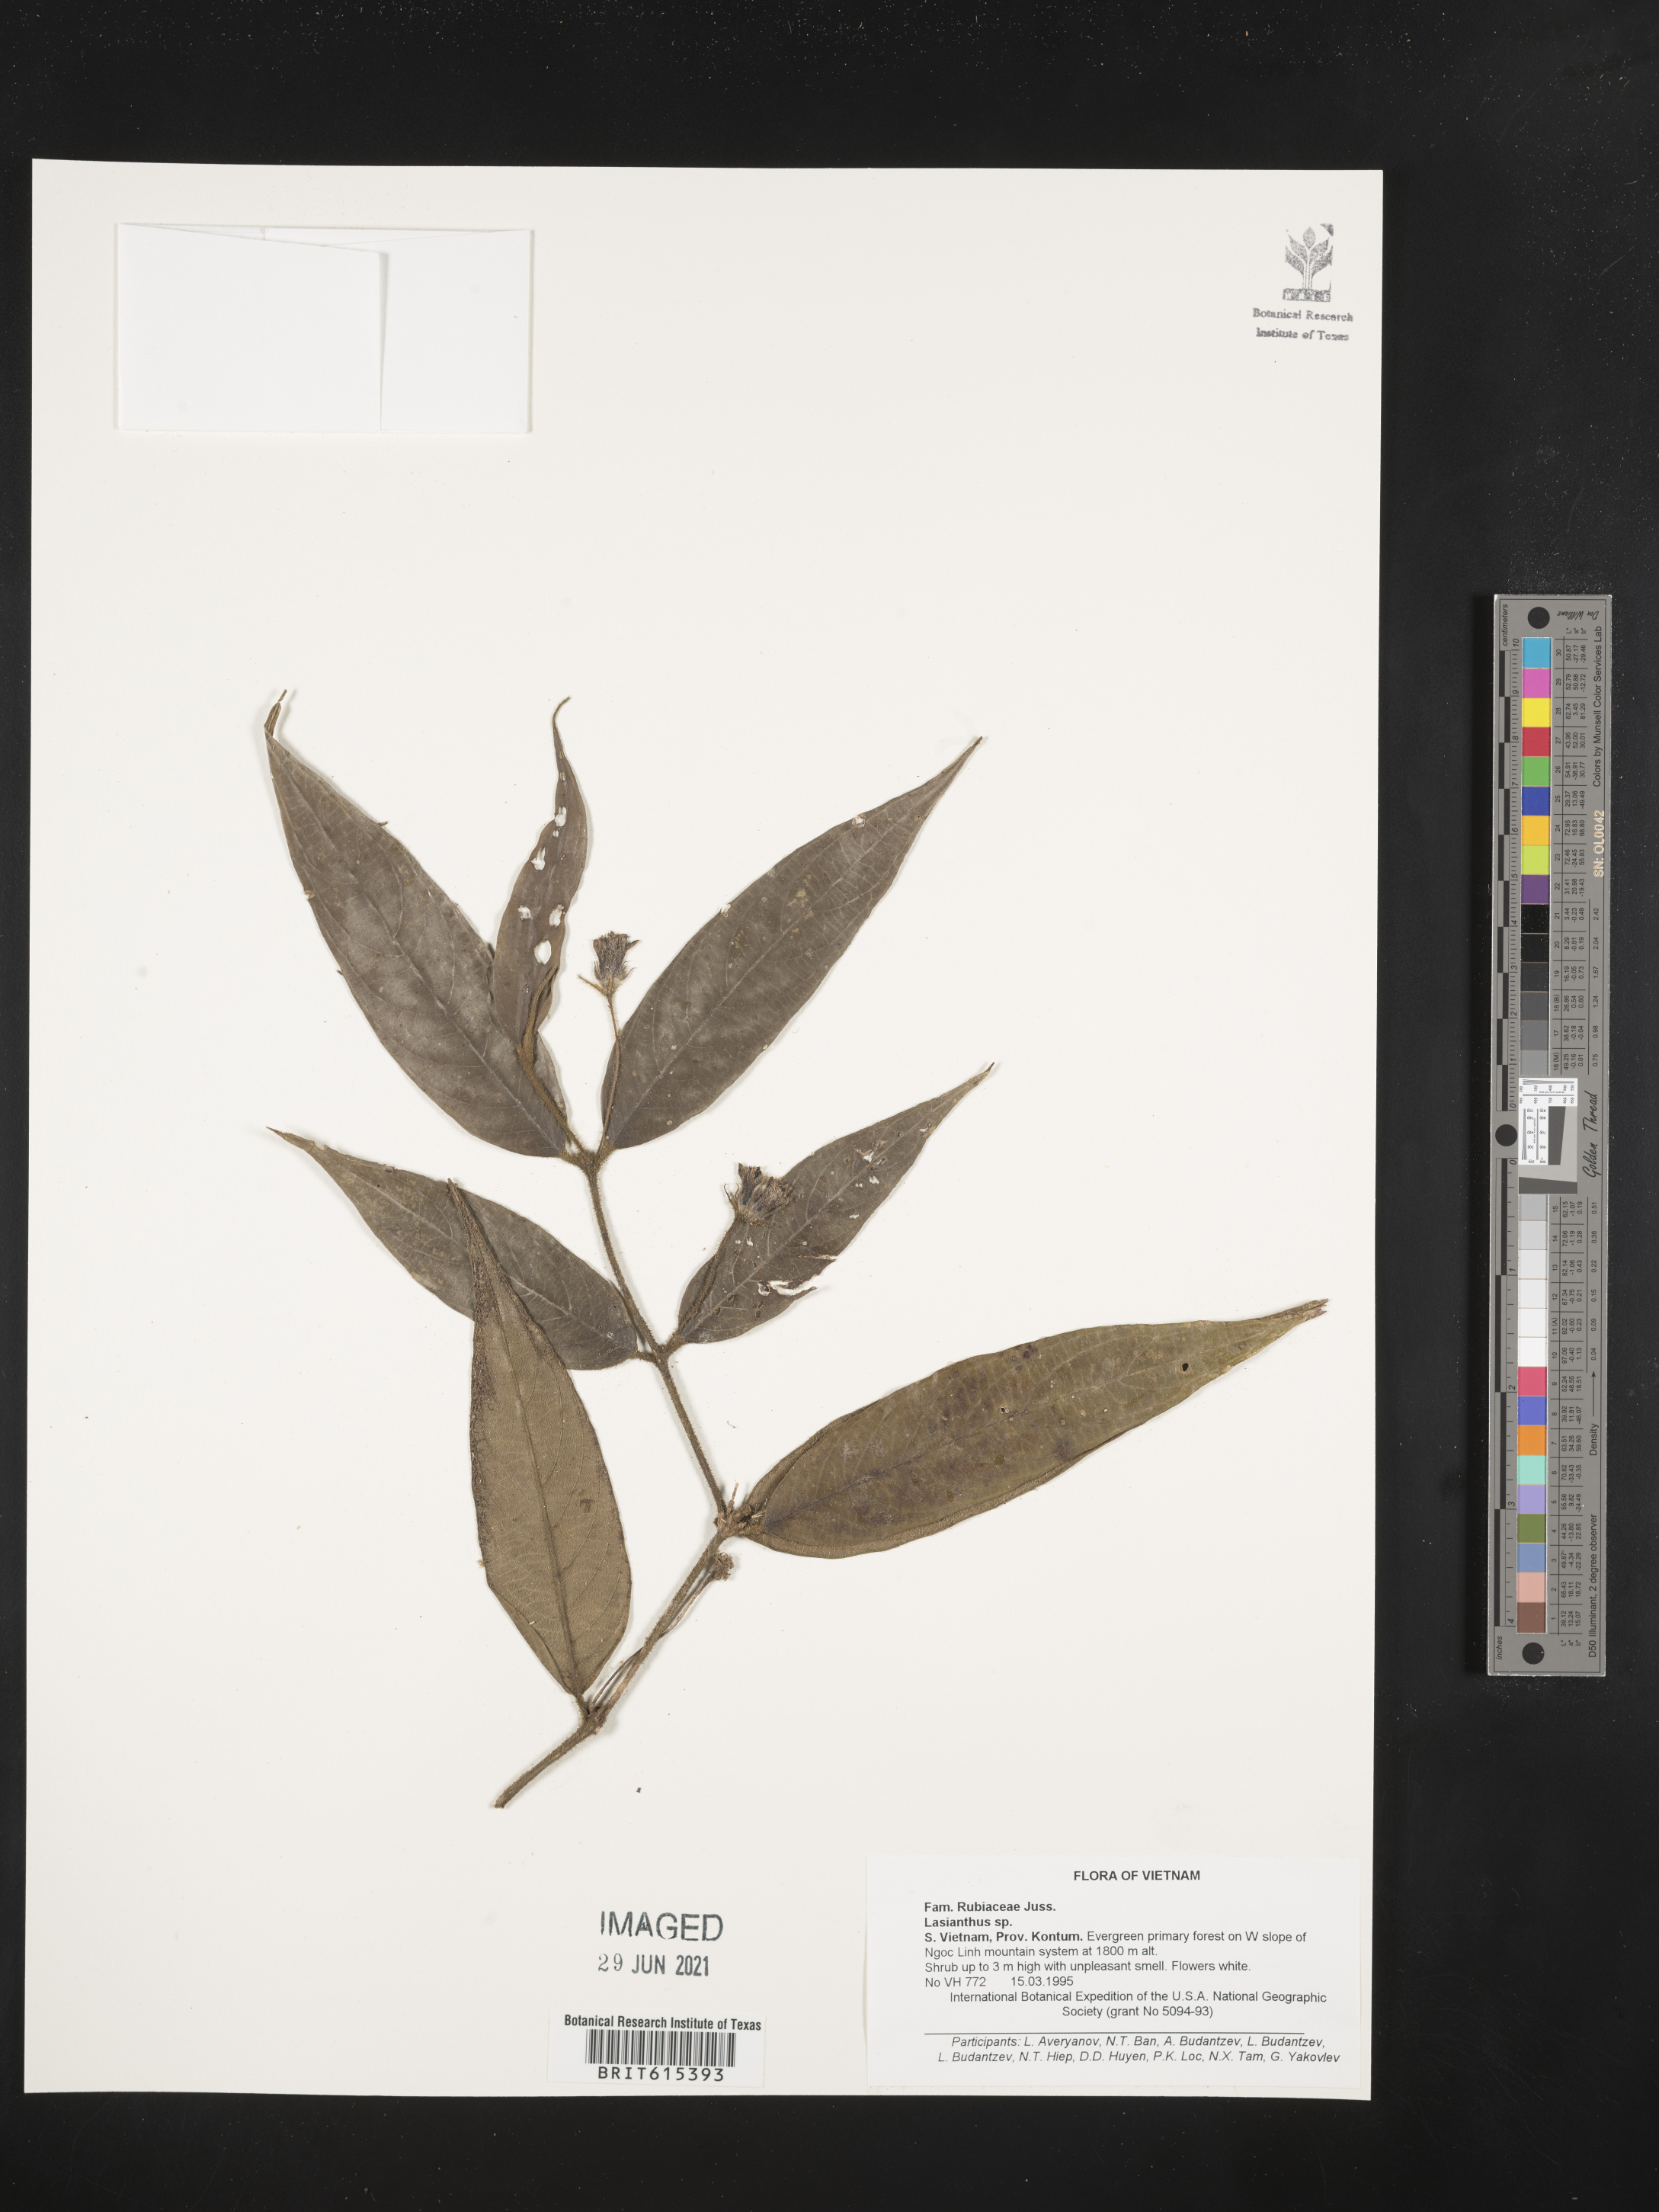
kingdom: Plantae
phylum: Tracheophyta
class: Magnoliopsida
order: Gentianales
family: Rubiaceae
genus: Lasianthus
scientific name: Lasianthus
